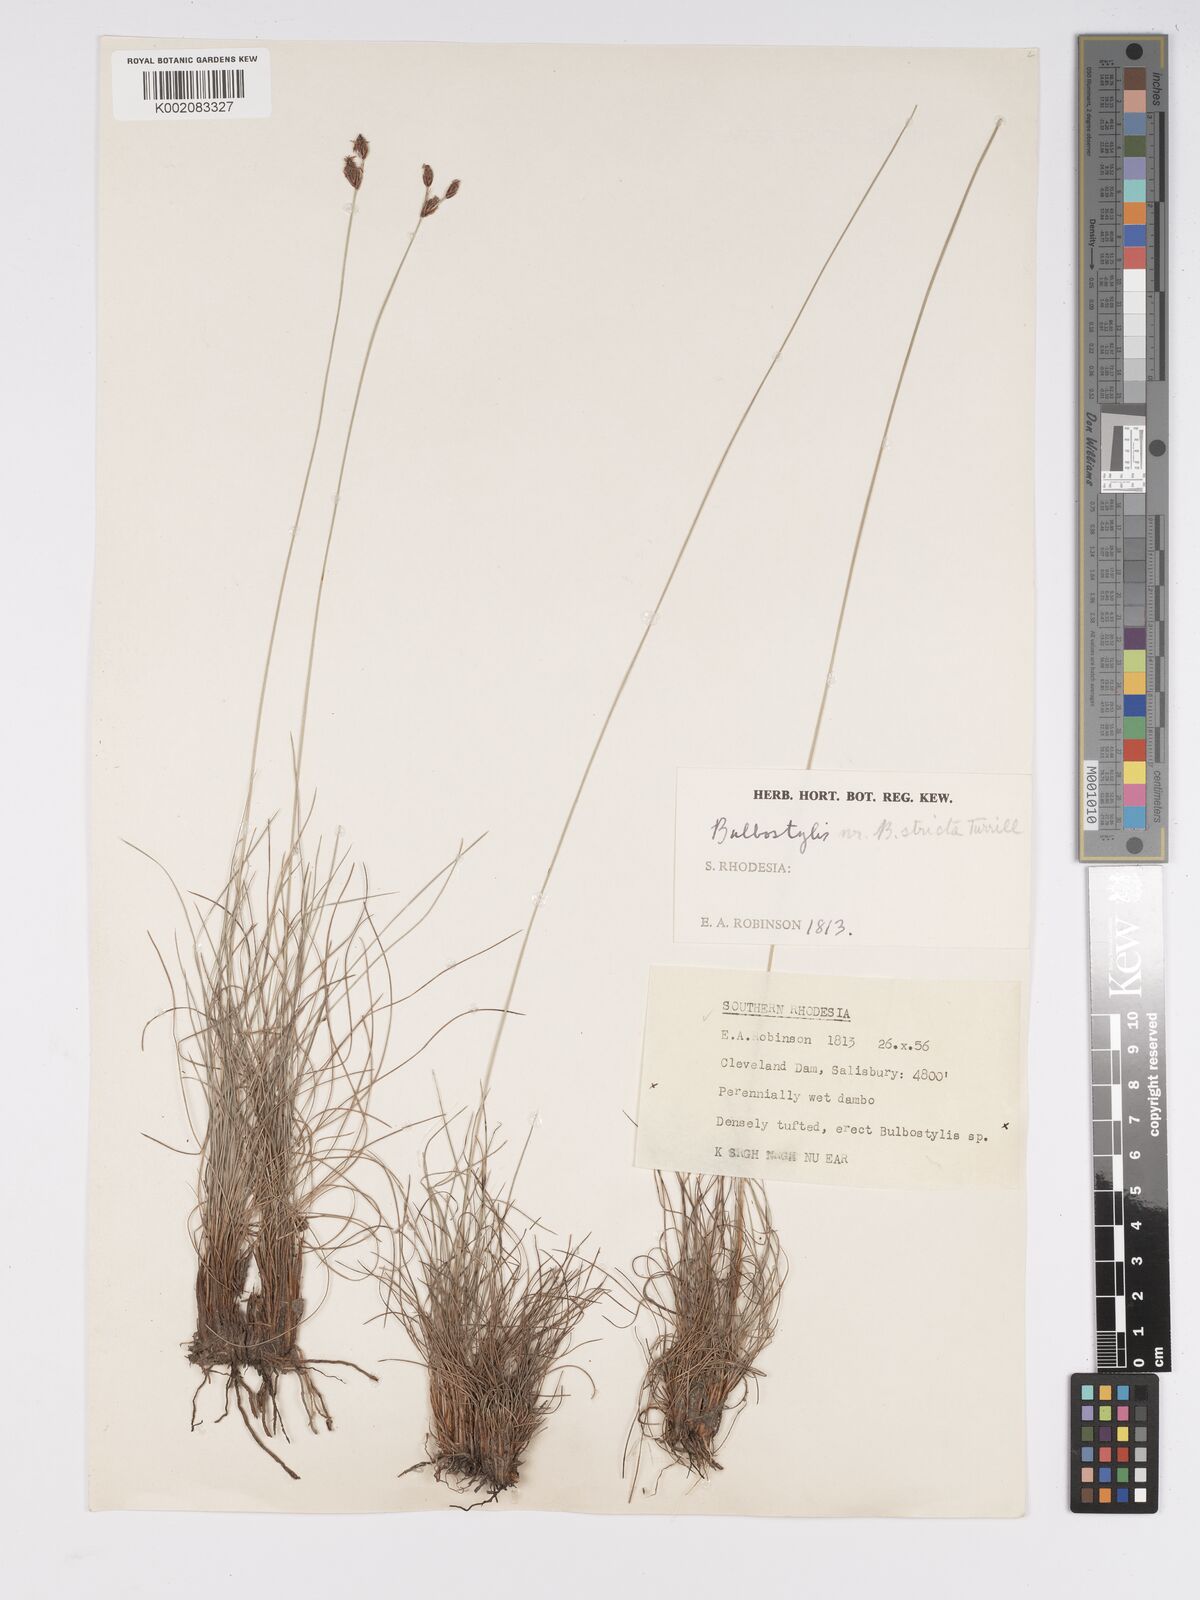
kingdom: Plantae
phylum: Tracheophyta
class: Liliopsida
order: Poales
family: Cyperaceae
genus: Bulbostylis
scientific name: Bulbostylis schoenoides
